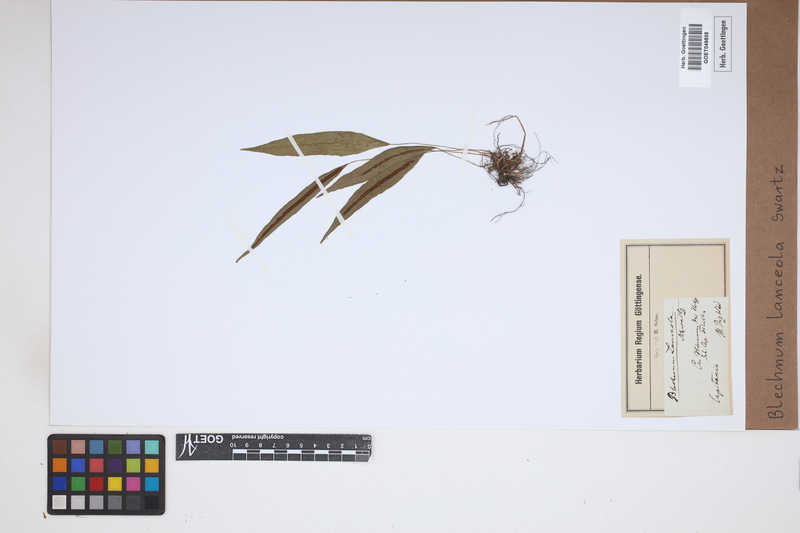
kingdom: Plantae
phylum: Tracheophyta
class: Polypodiopsida
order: Polypodiales
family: Blechnaceae
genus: Blechnum
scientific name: Blechnum lanceola
